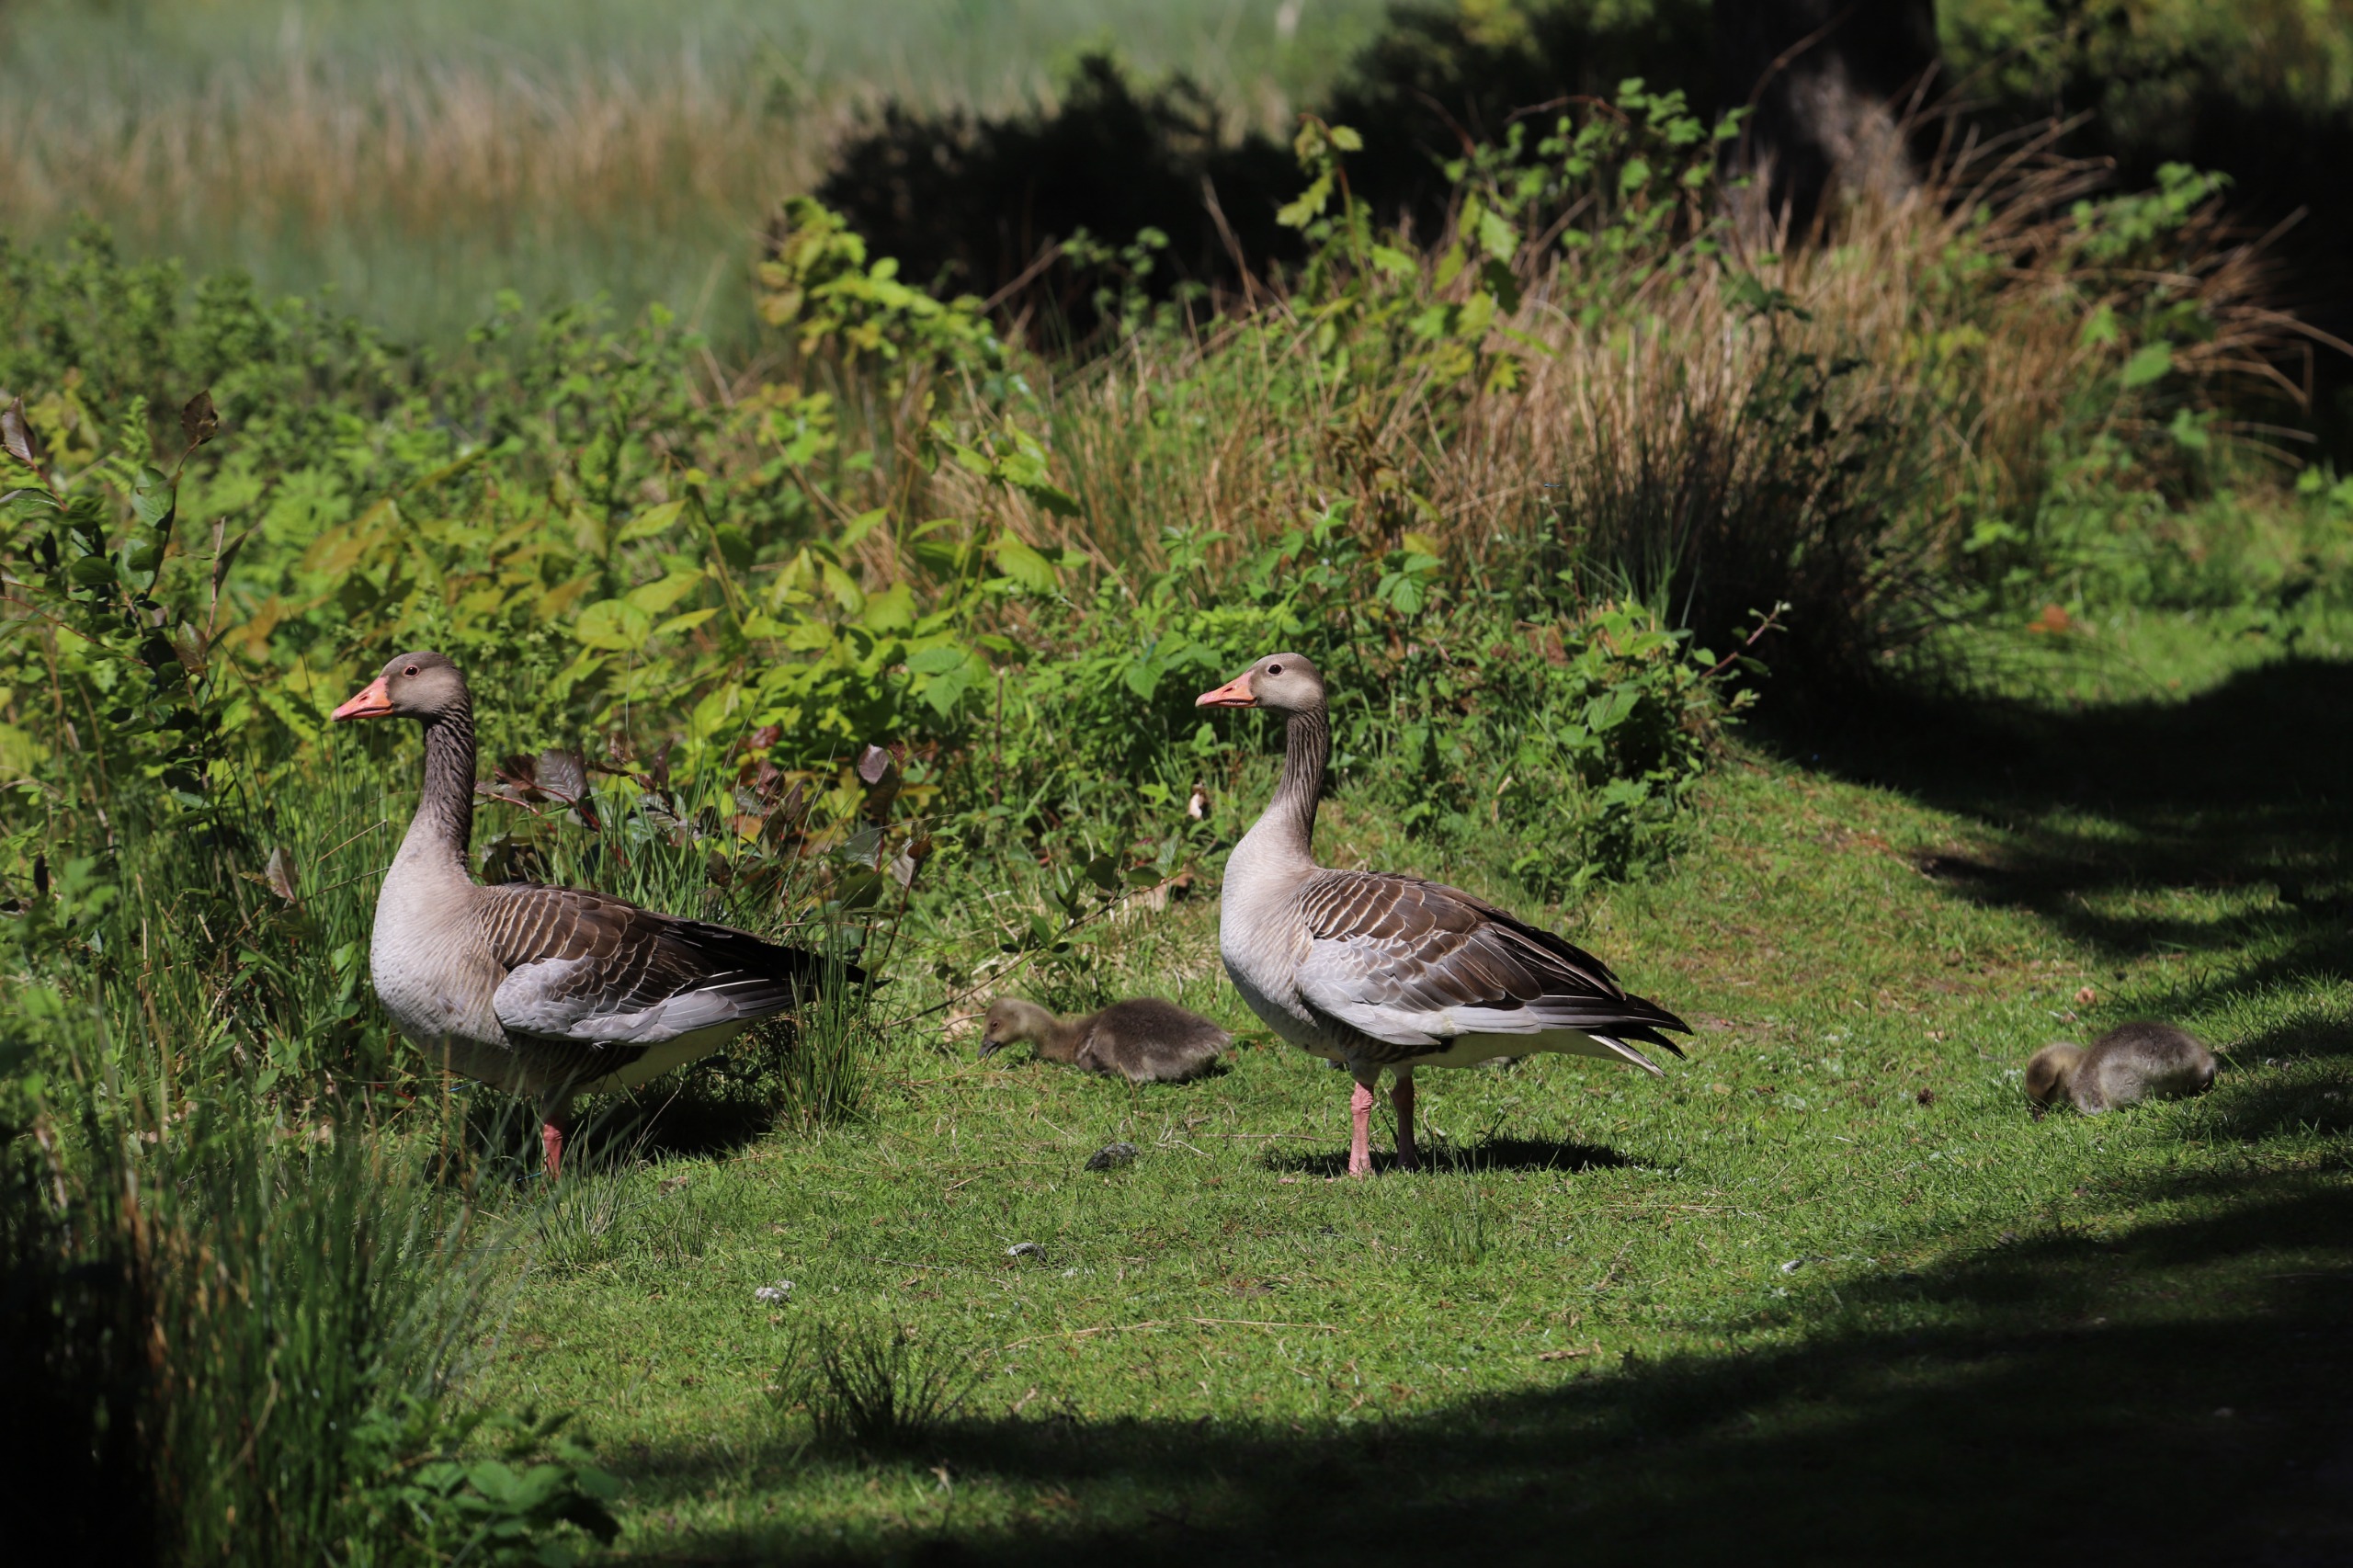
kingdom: Animalia
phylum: Chordata
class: Aves
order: Anseriformes
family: Anatidae
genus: Anser
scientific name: Anser anser
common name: Grågås
